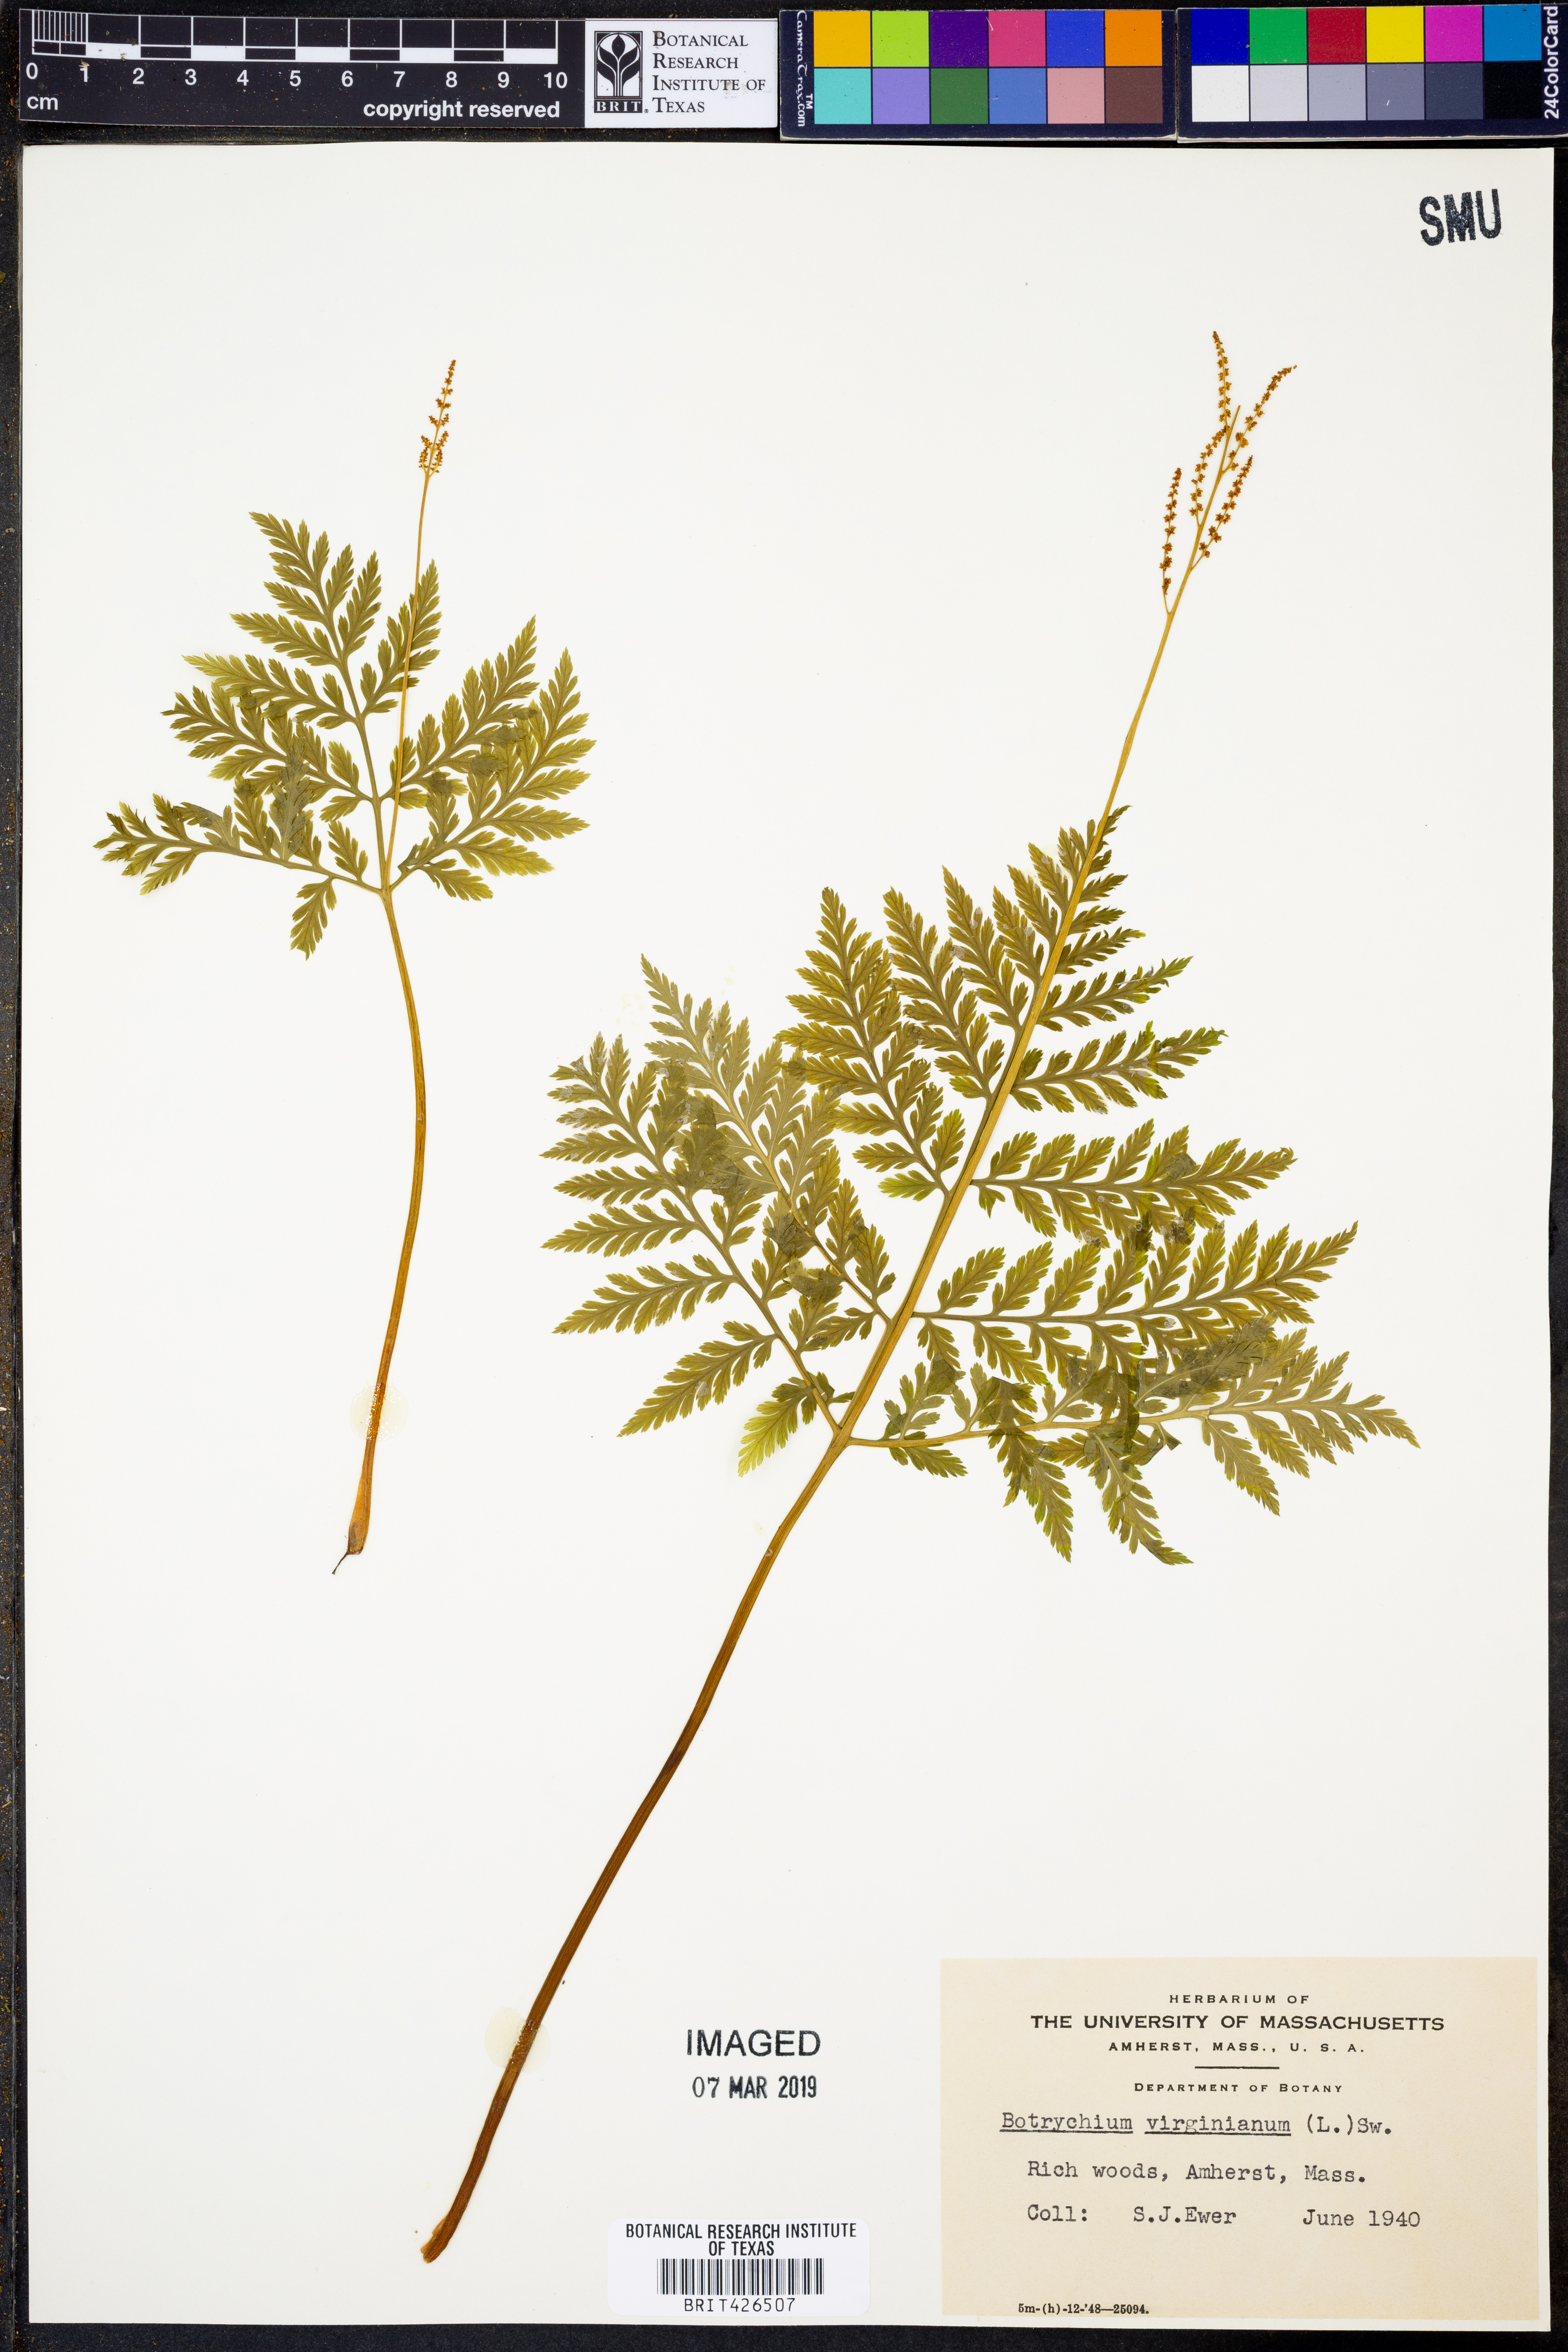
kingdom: Plantae
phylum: Tracheophyta
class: Polypodiopsida
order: Ophioglossales
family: Ophioglossaceae
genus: Botrypus
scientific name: Botrypus virginianus
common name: Common grapefern
